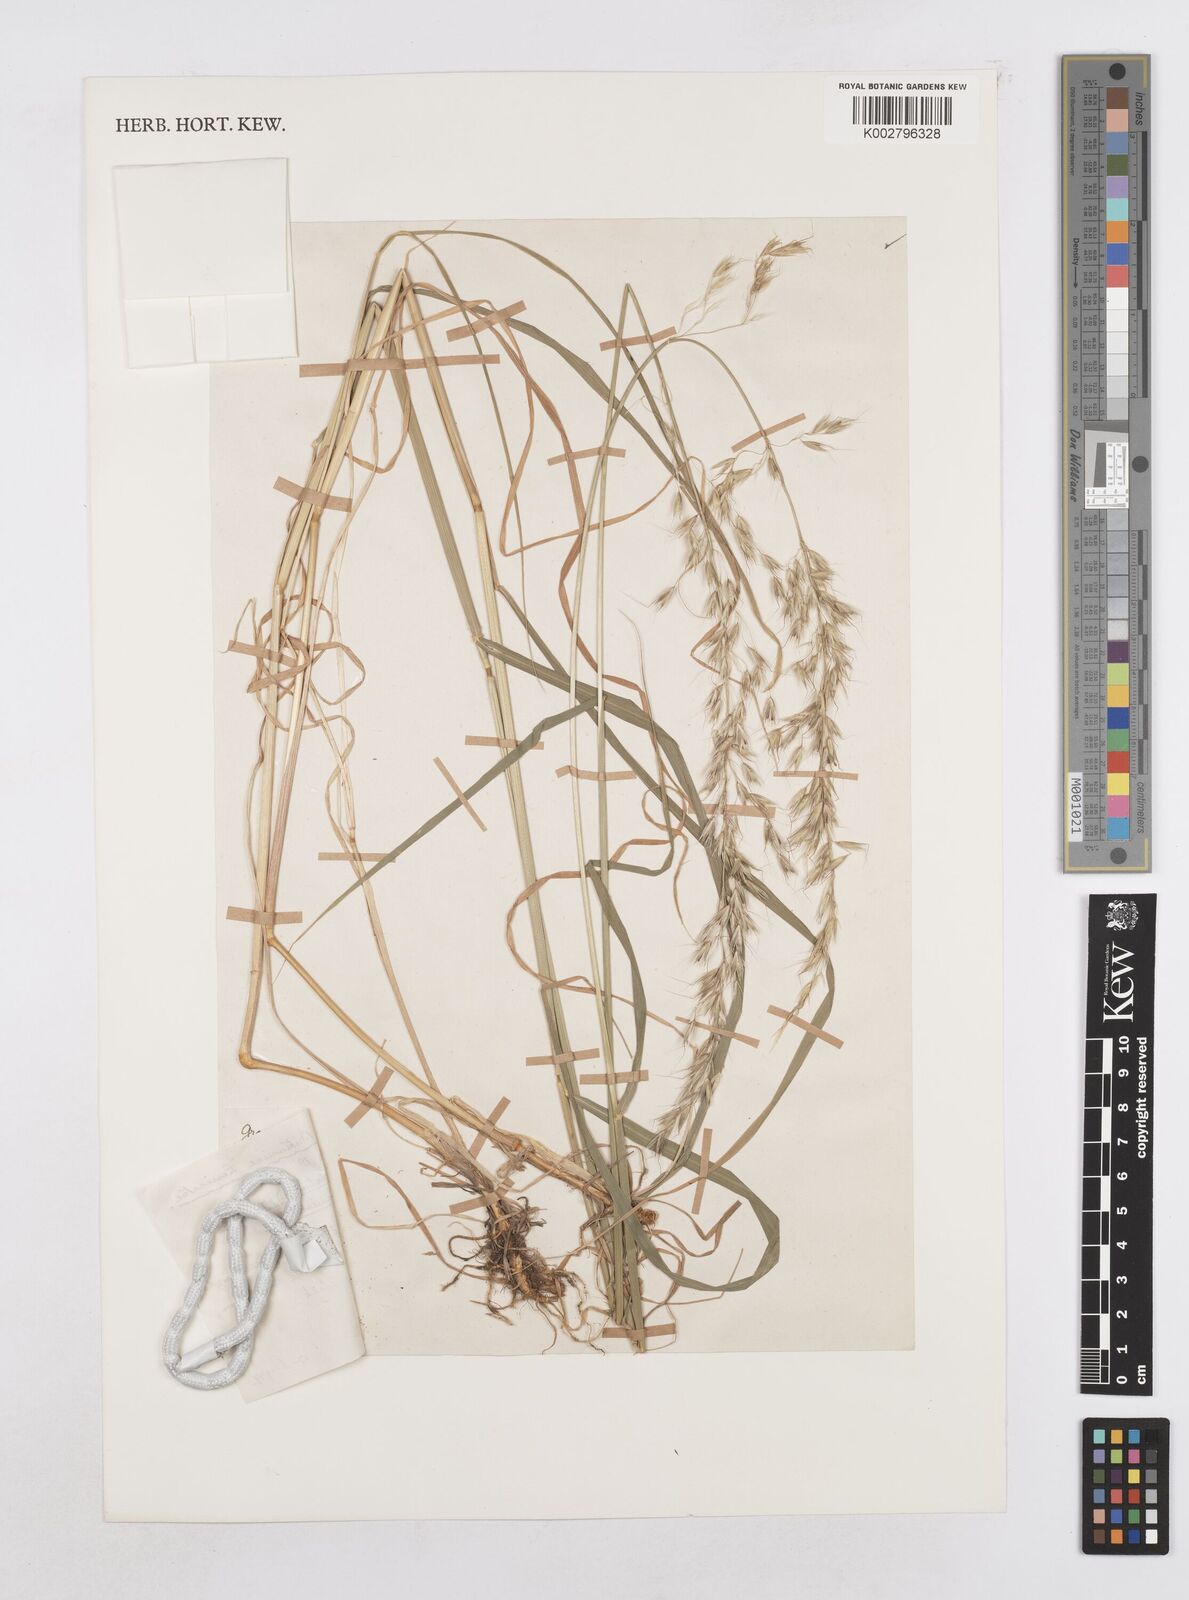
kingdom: Plantae
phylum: Tracheophyta
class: Liliopsida
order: Poales
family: Poaceae
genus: Arrhenatherum
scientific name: Arrhenatherum elatius
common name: Tall oatgrass
